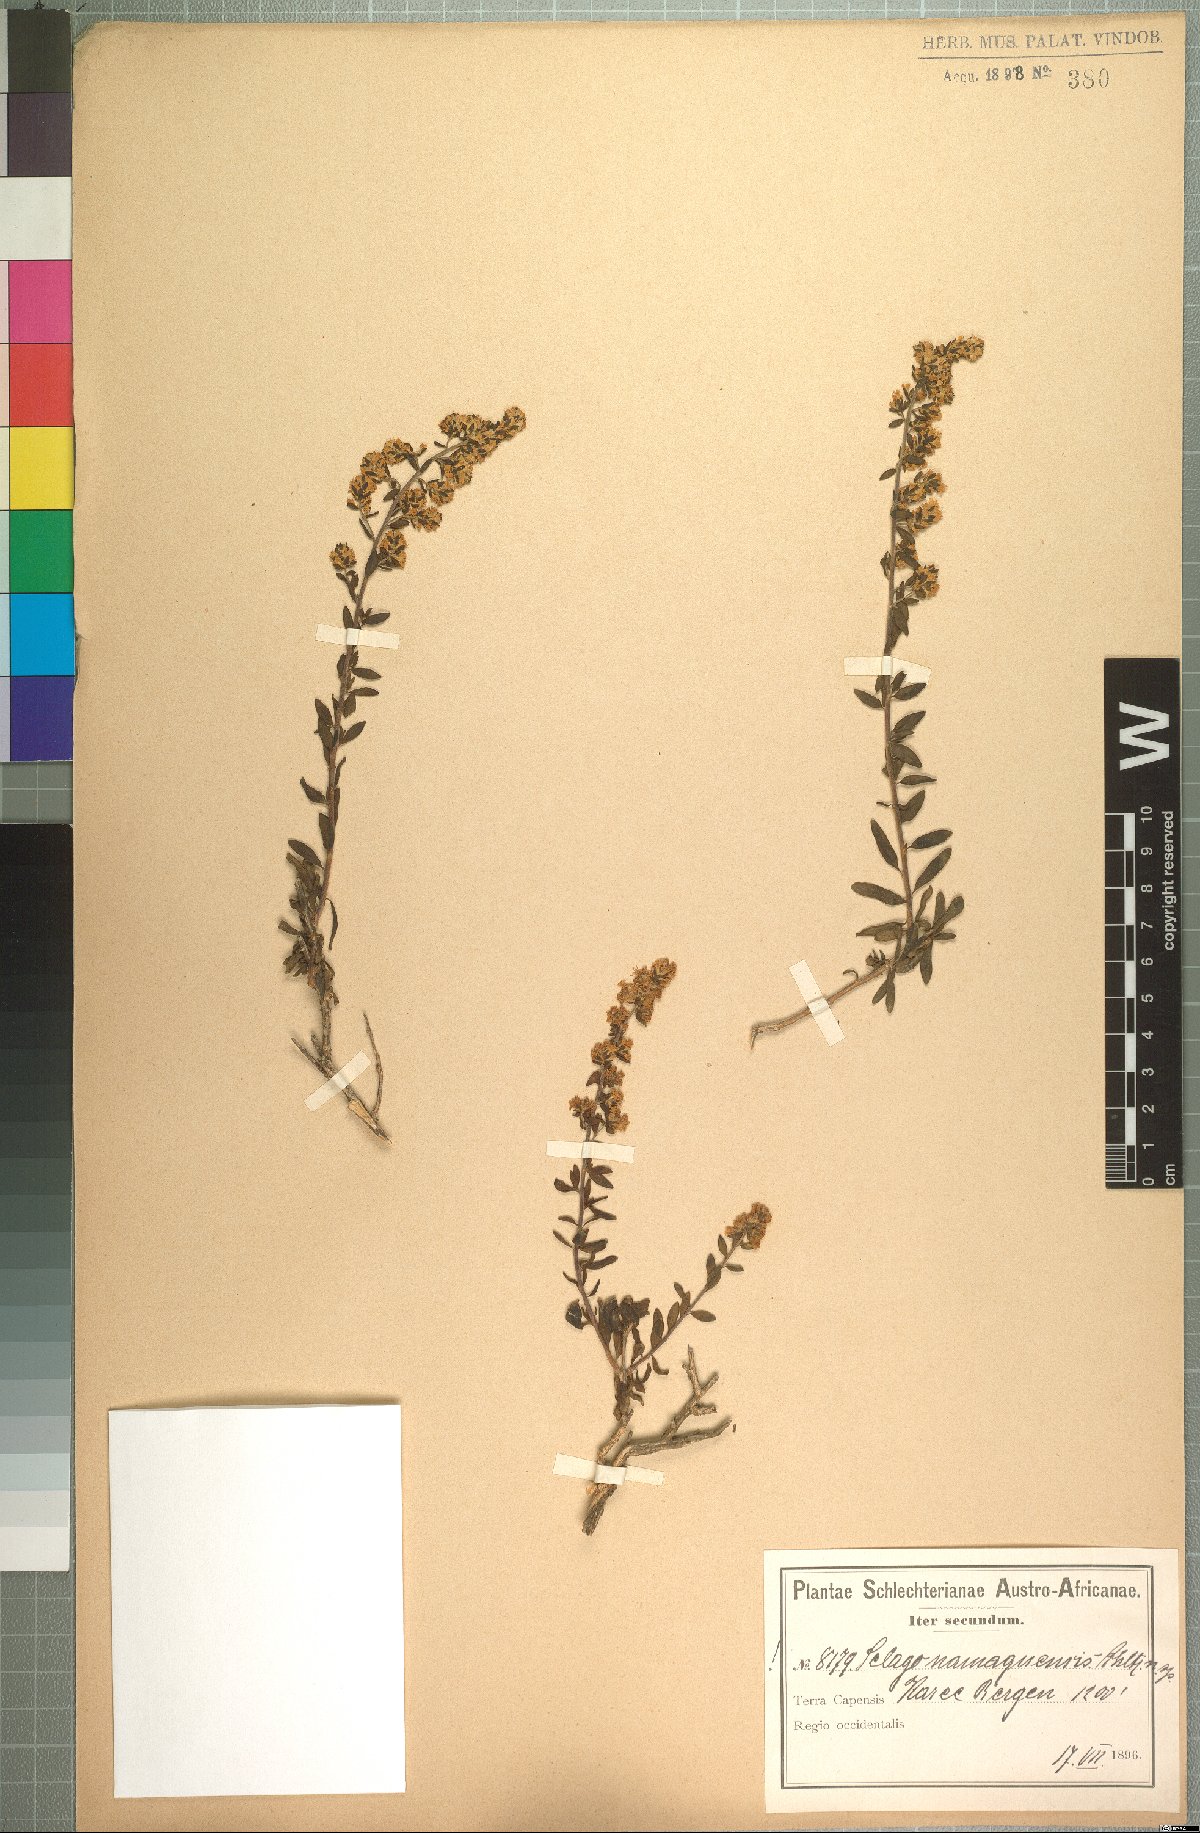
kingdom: Plantae
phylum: Tracheophyta
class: Magnoliopsida
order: Lamiales
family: Scrophulariaceae
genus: Selago
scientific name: Selago namaquensis
